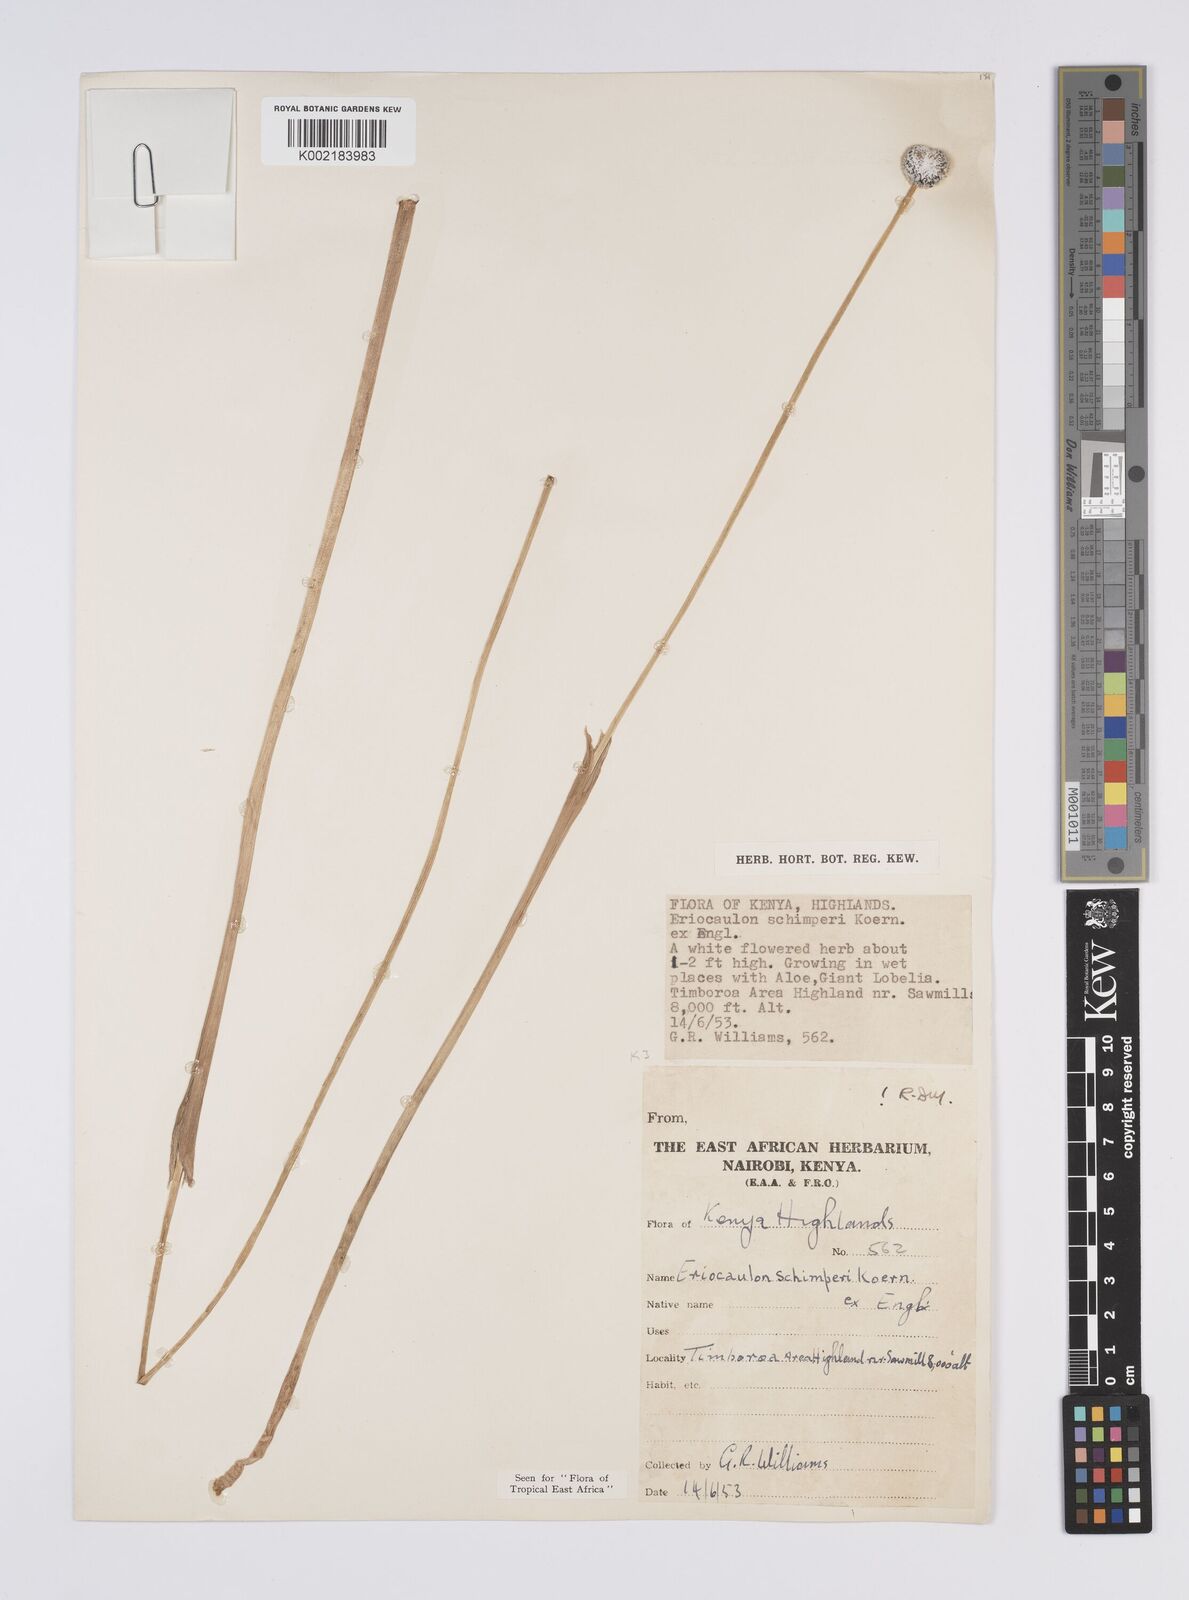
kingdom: Plantae
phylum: Tracheophyta
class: Liliopsida
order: Poales
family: Eriocaulaceae
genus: Eriocaulon
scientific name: Eriocaulon schimperi
